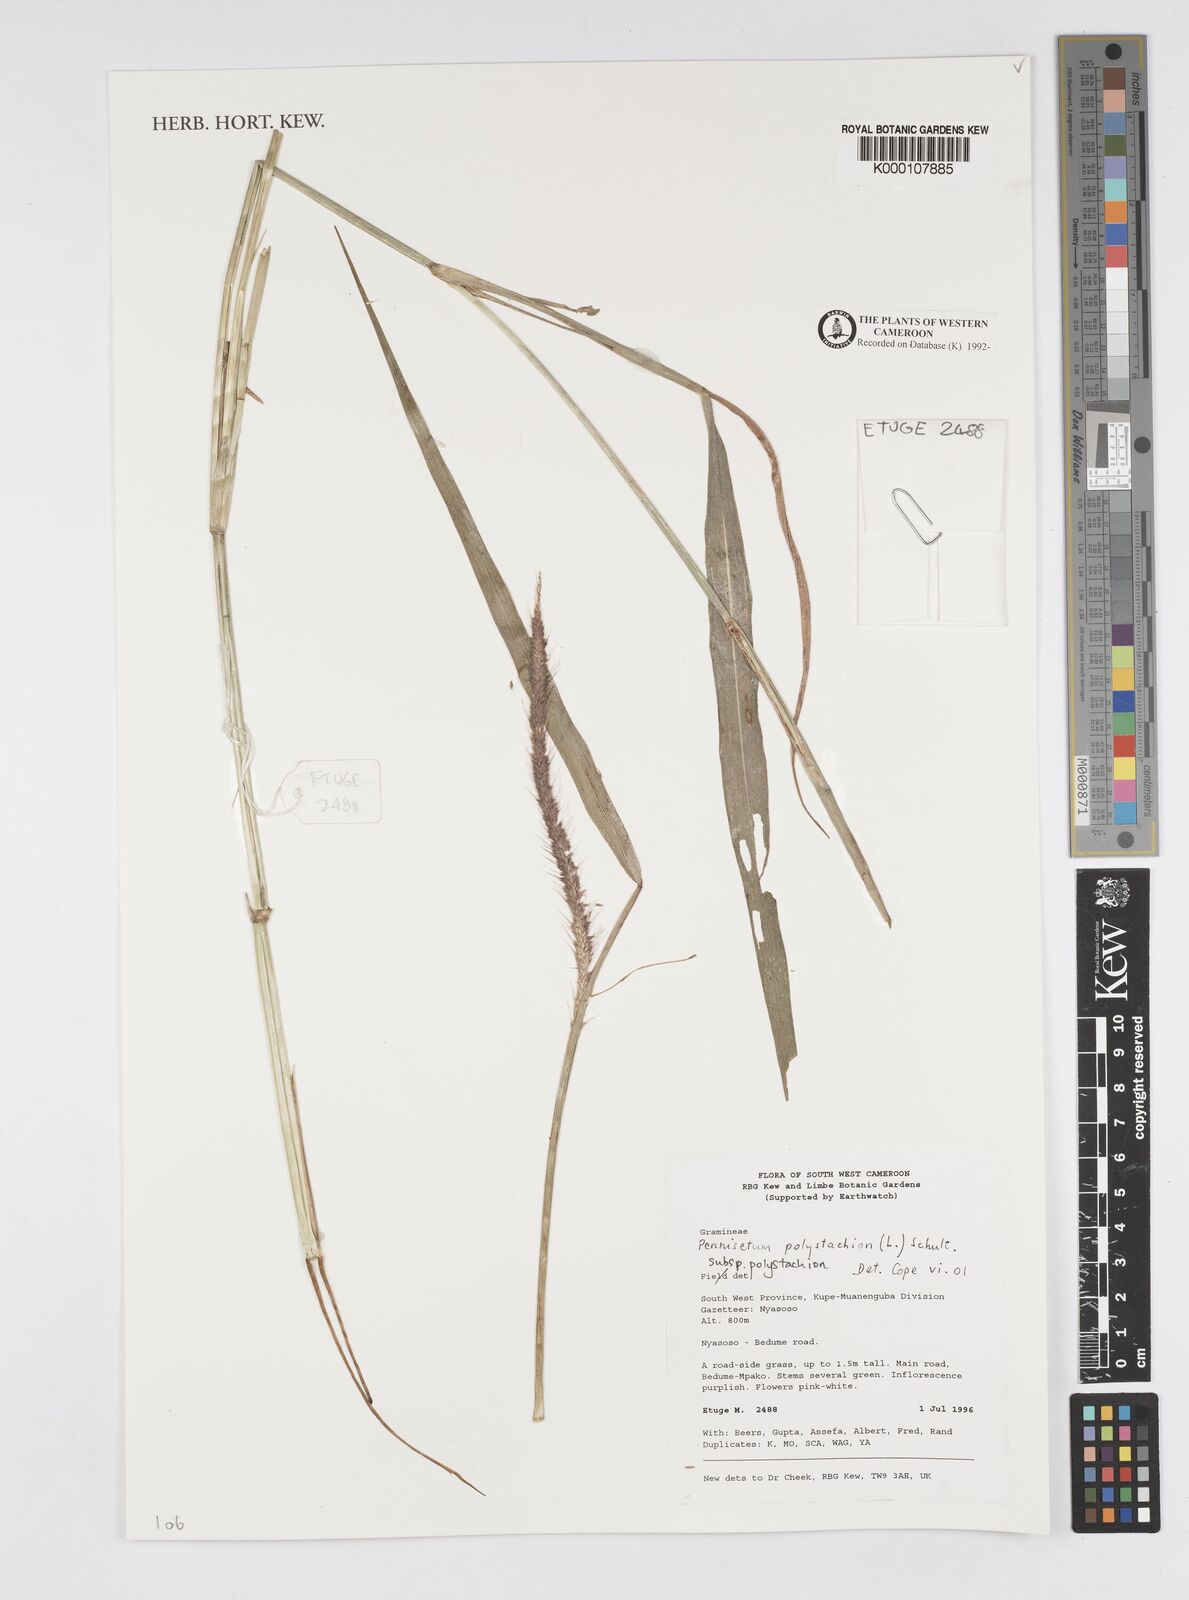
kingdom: Plantae
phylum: Tracheophyta
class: Liliopsida
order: Poales
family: Poaceae
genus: Setaria
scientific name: Setaria parviflora
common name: Knotroot bristle-grass
